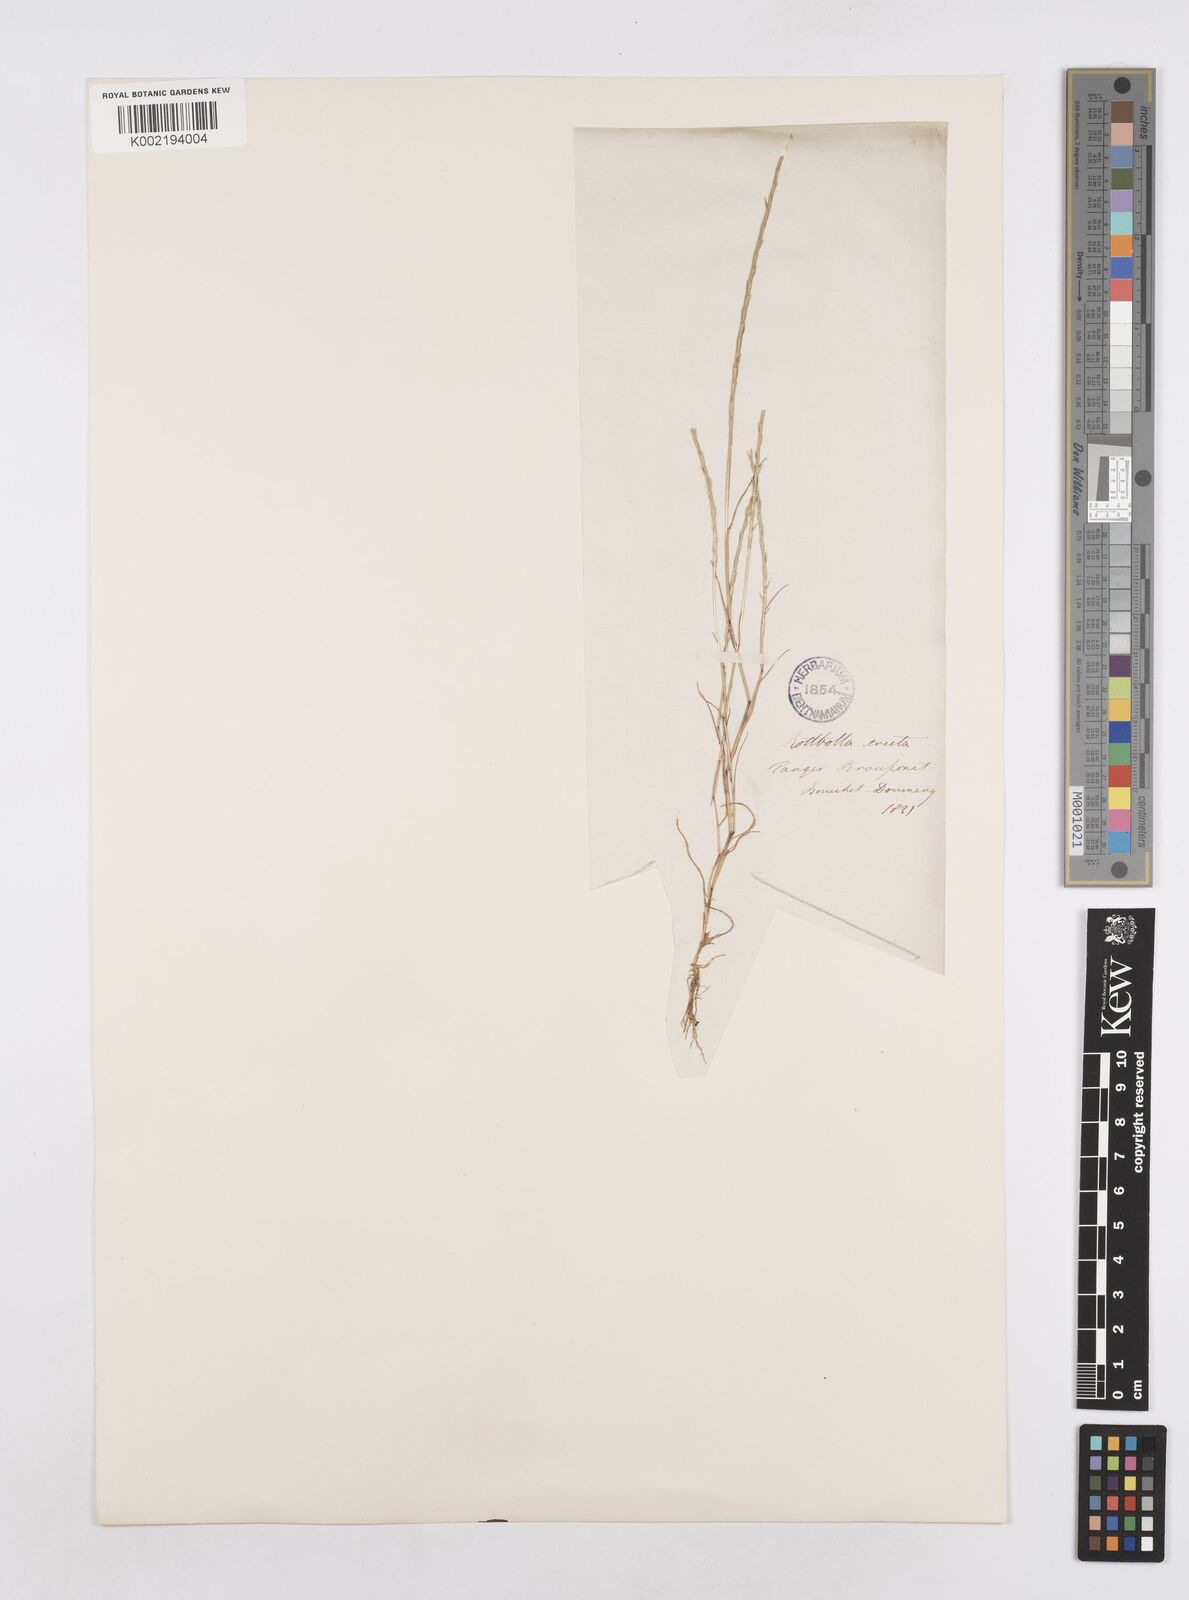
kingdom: Plantae
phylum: Tracheophyta
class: Liliopsida
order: Poales
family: Poaceae
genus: Parapholis
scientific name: Parapholis filiformis
